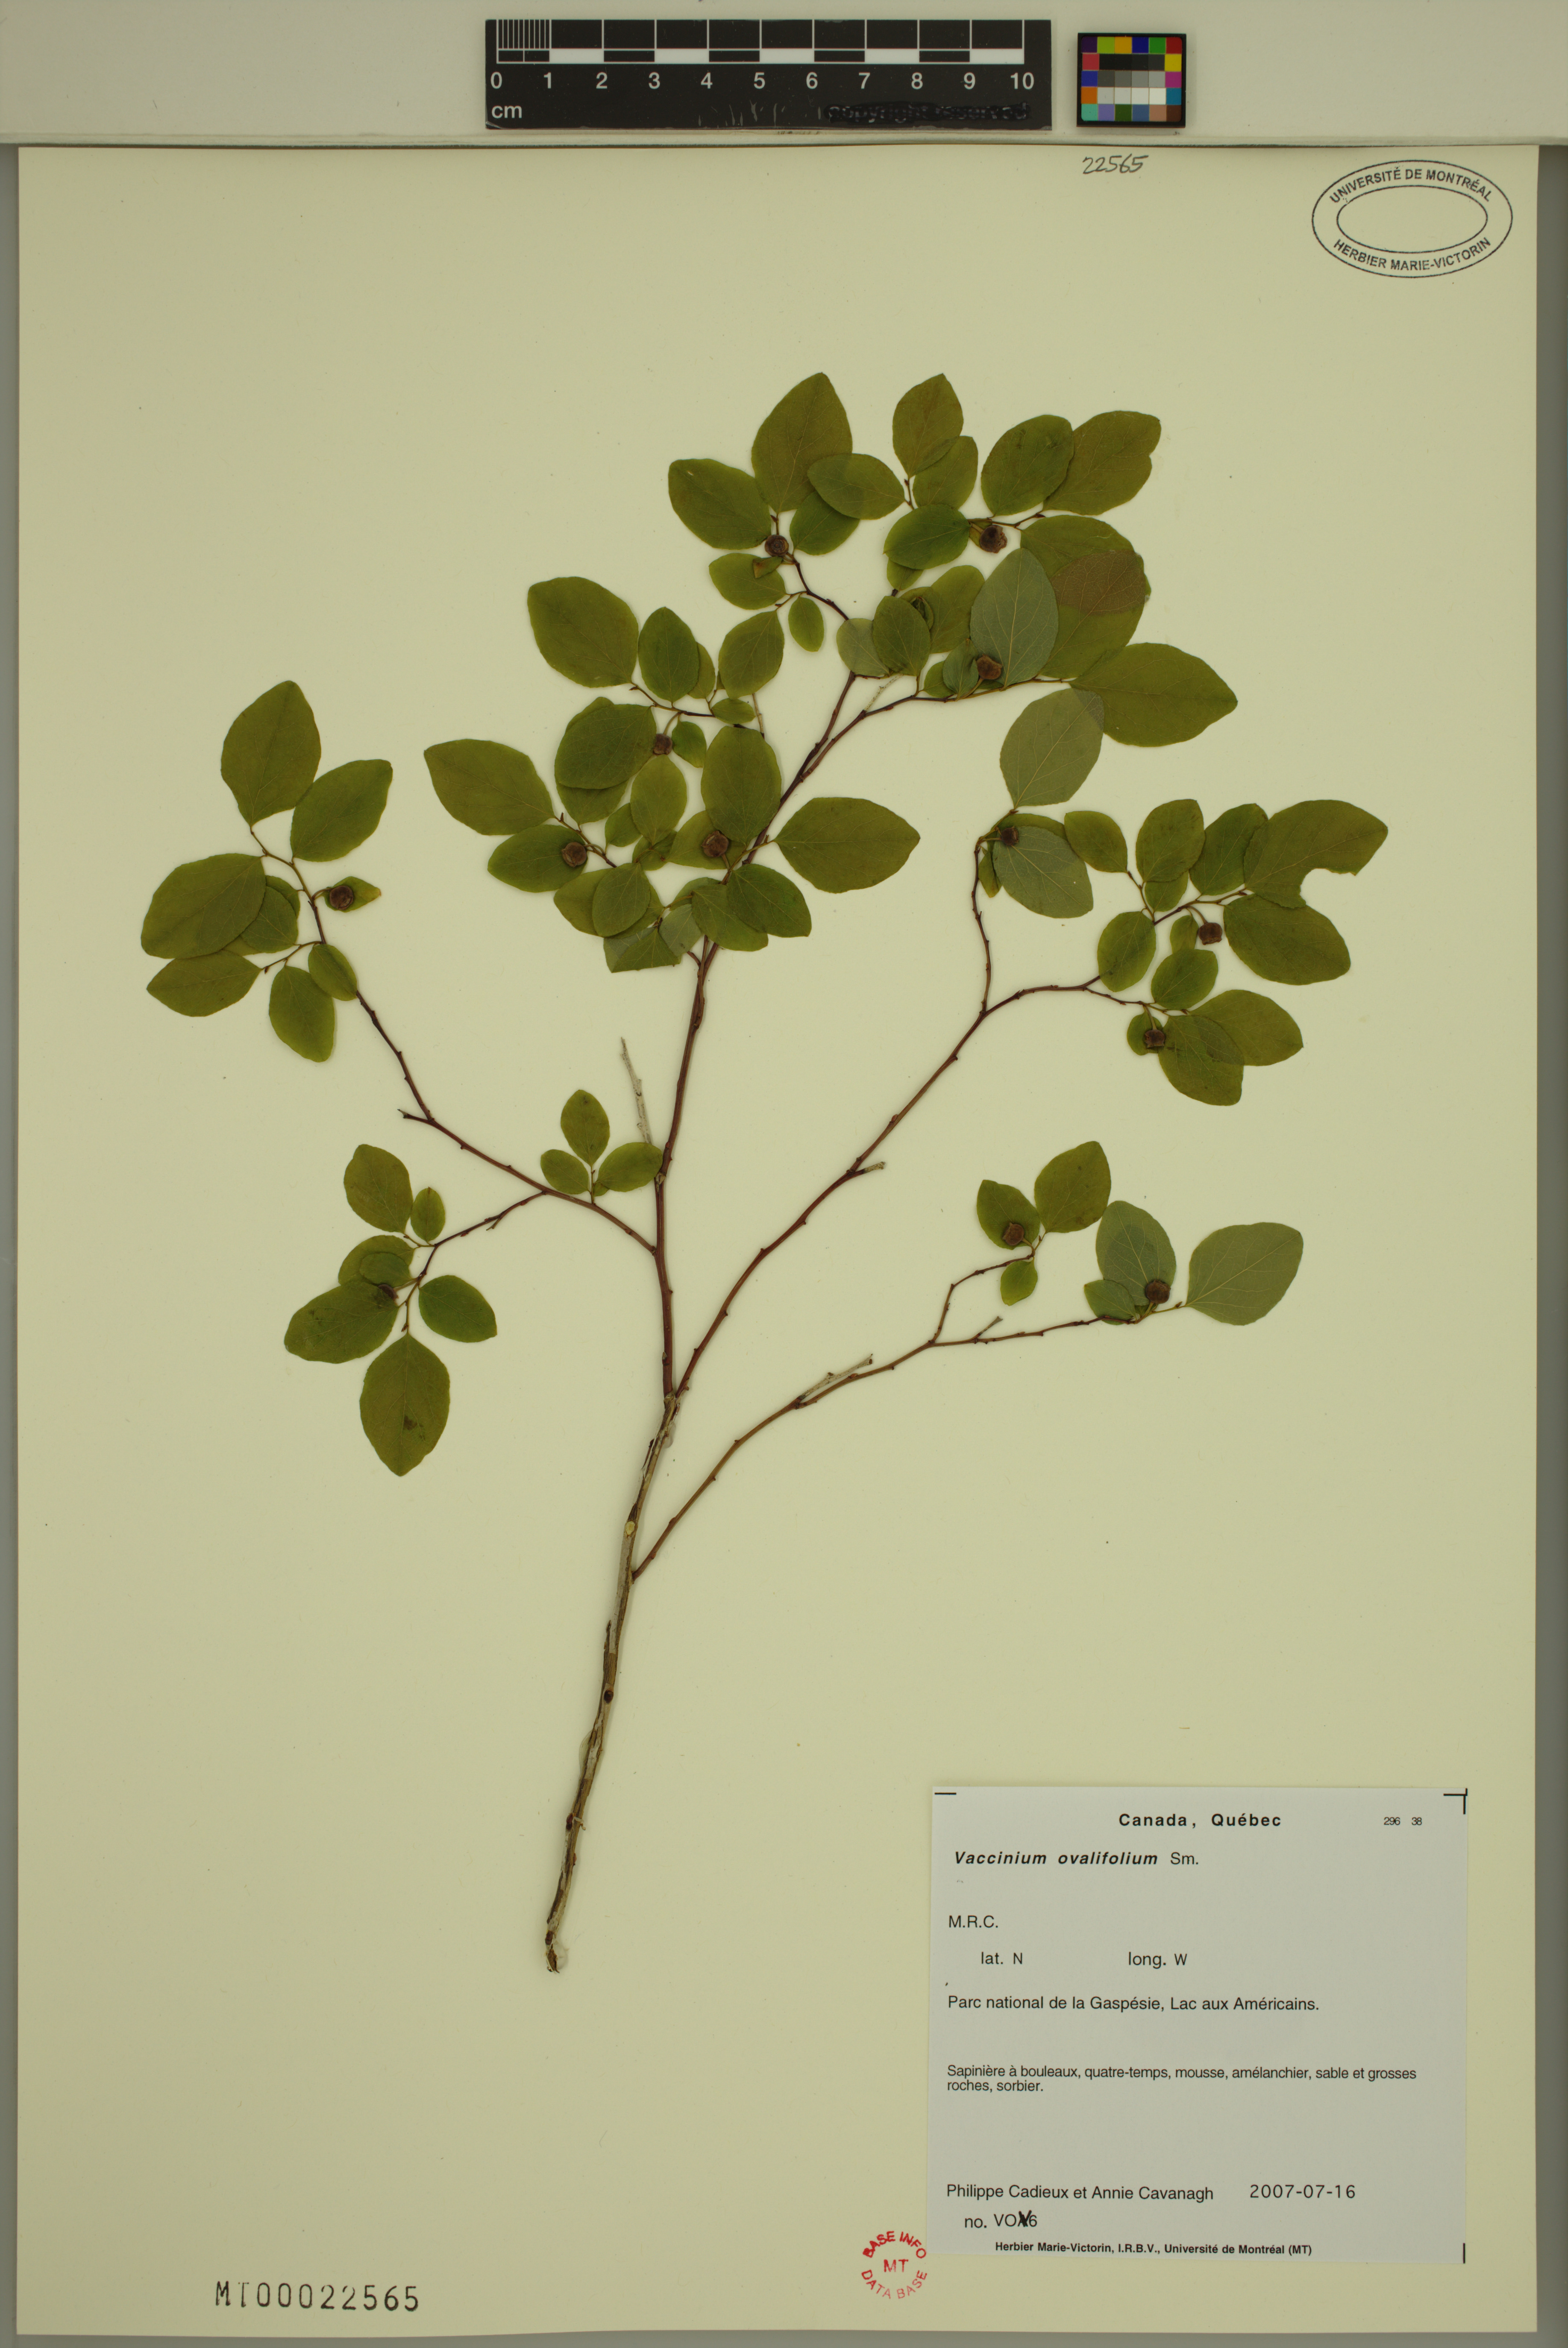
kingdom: Plantae
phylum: Tracheophyta
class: Magnoliopsida
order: Ericales
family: Ericaceae
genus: Vaccinium
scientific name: Vaccinium ovalifolium
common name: Early blueberry
